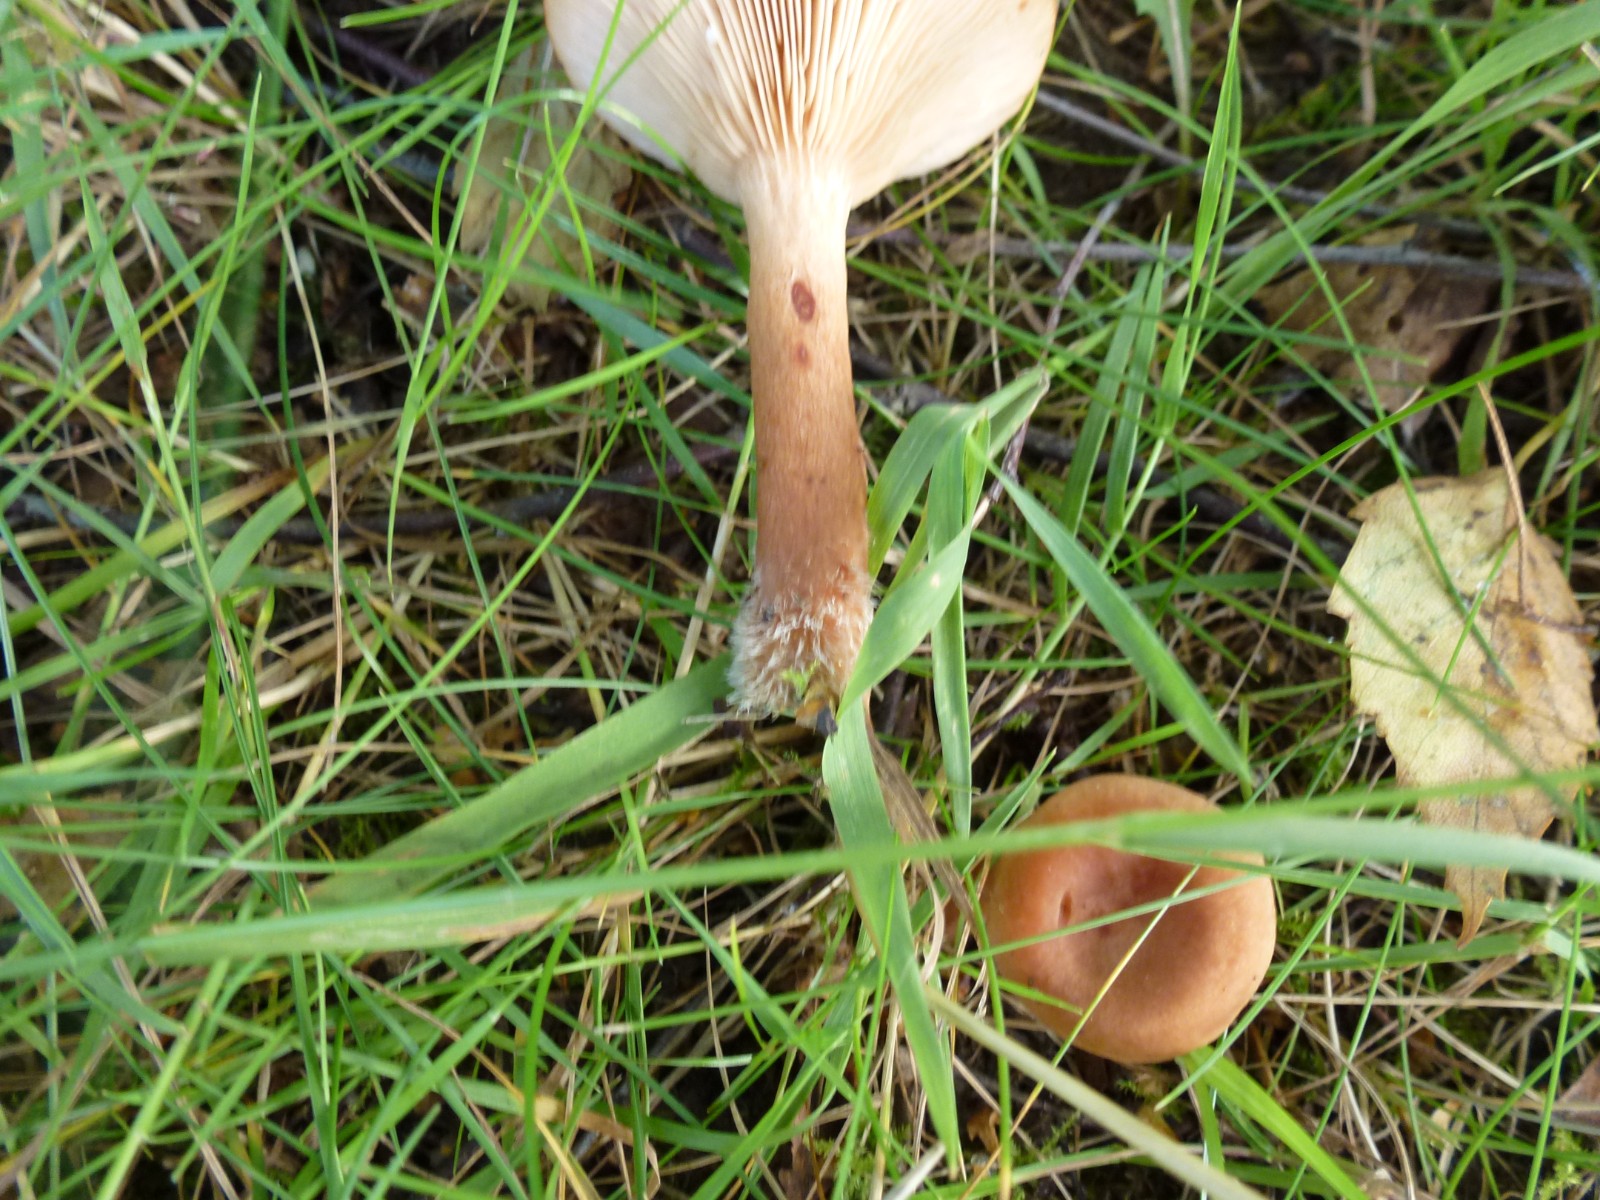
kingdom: Fungi
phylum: Basidiomycota
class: Agaricomycetes
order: Russulales
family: Russulaceae
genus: Lactarius
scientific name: Lactarius tabidus
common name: rynket mælkehat
